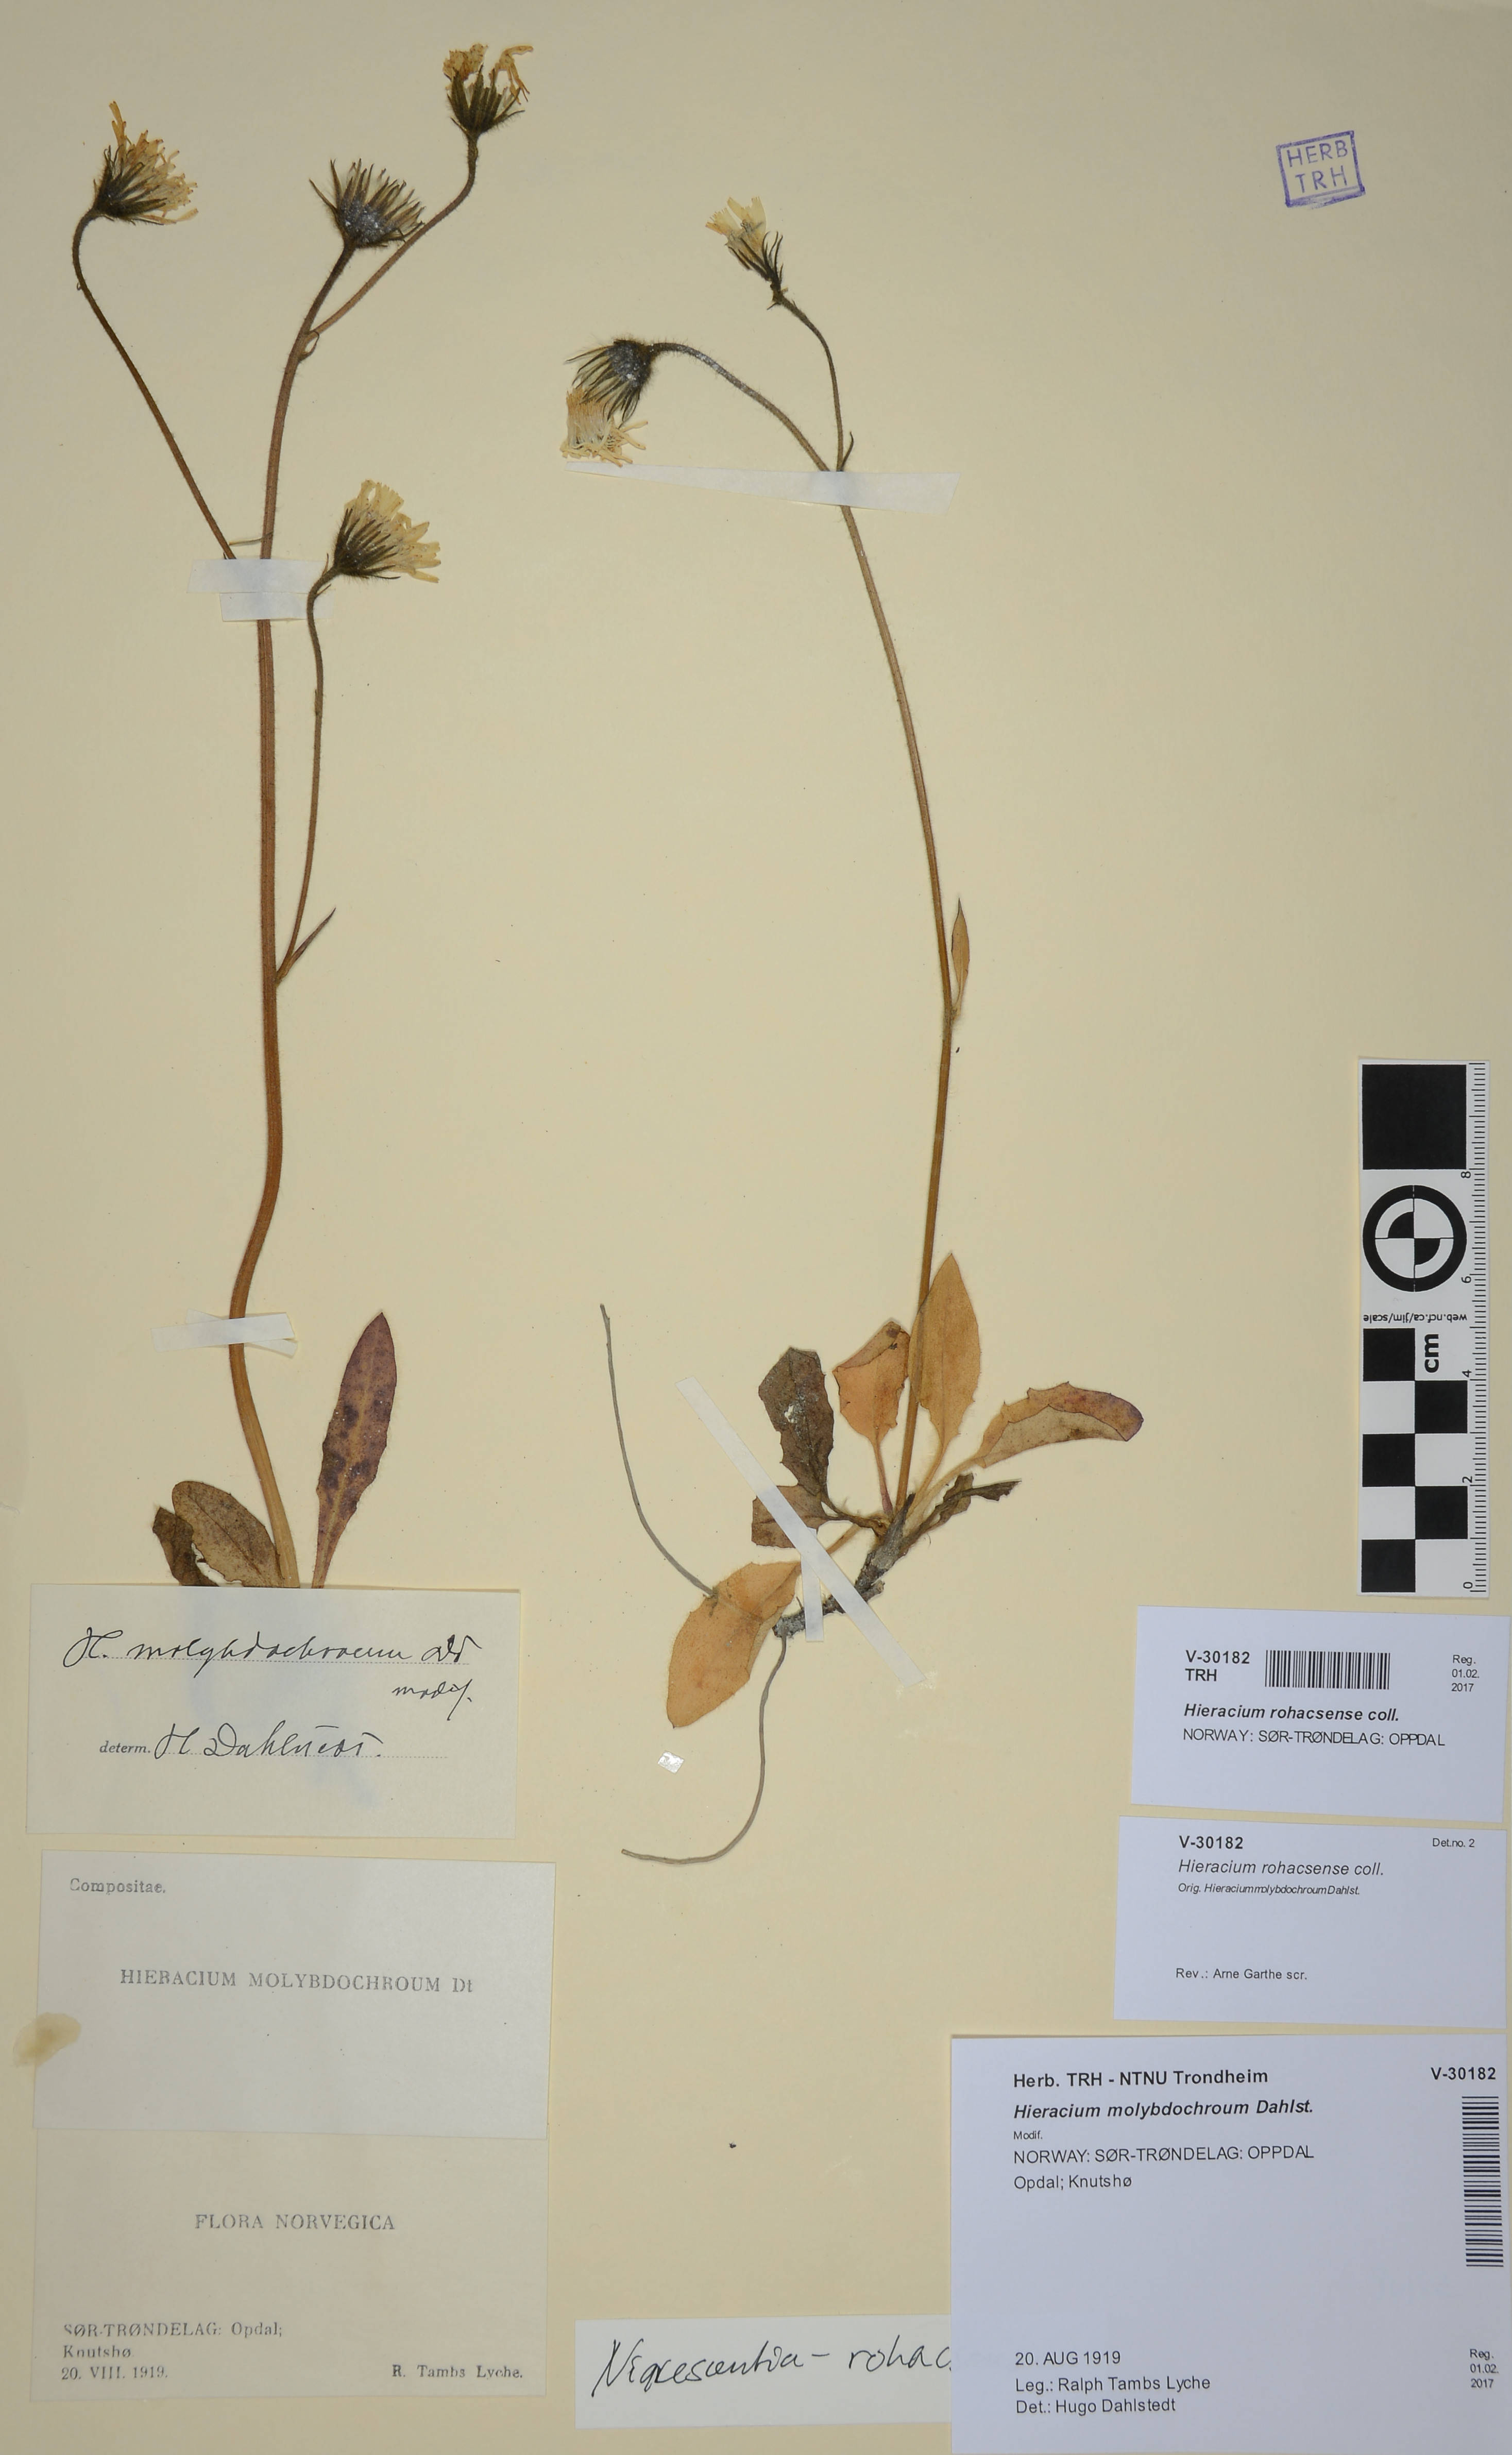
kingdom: Plantae
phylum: Tracheophyta
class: Magnoliopsida
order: Asterales
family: Asteraceae
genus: Hieracium
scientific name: Hieracium rohacsense
